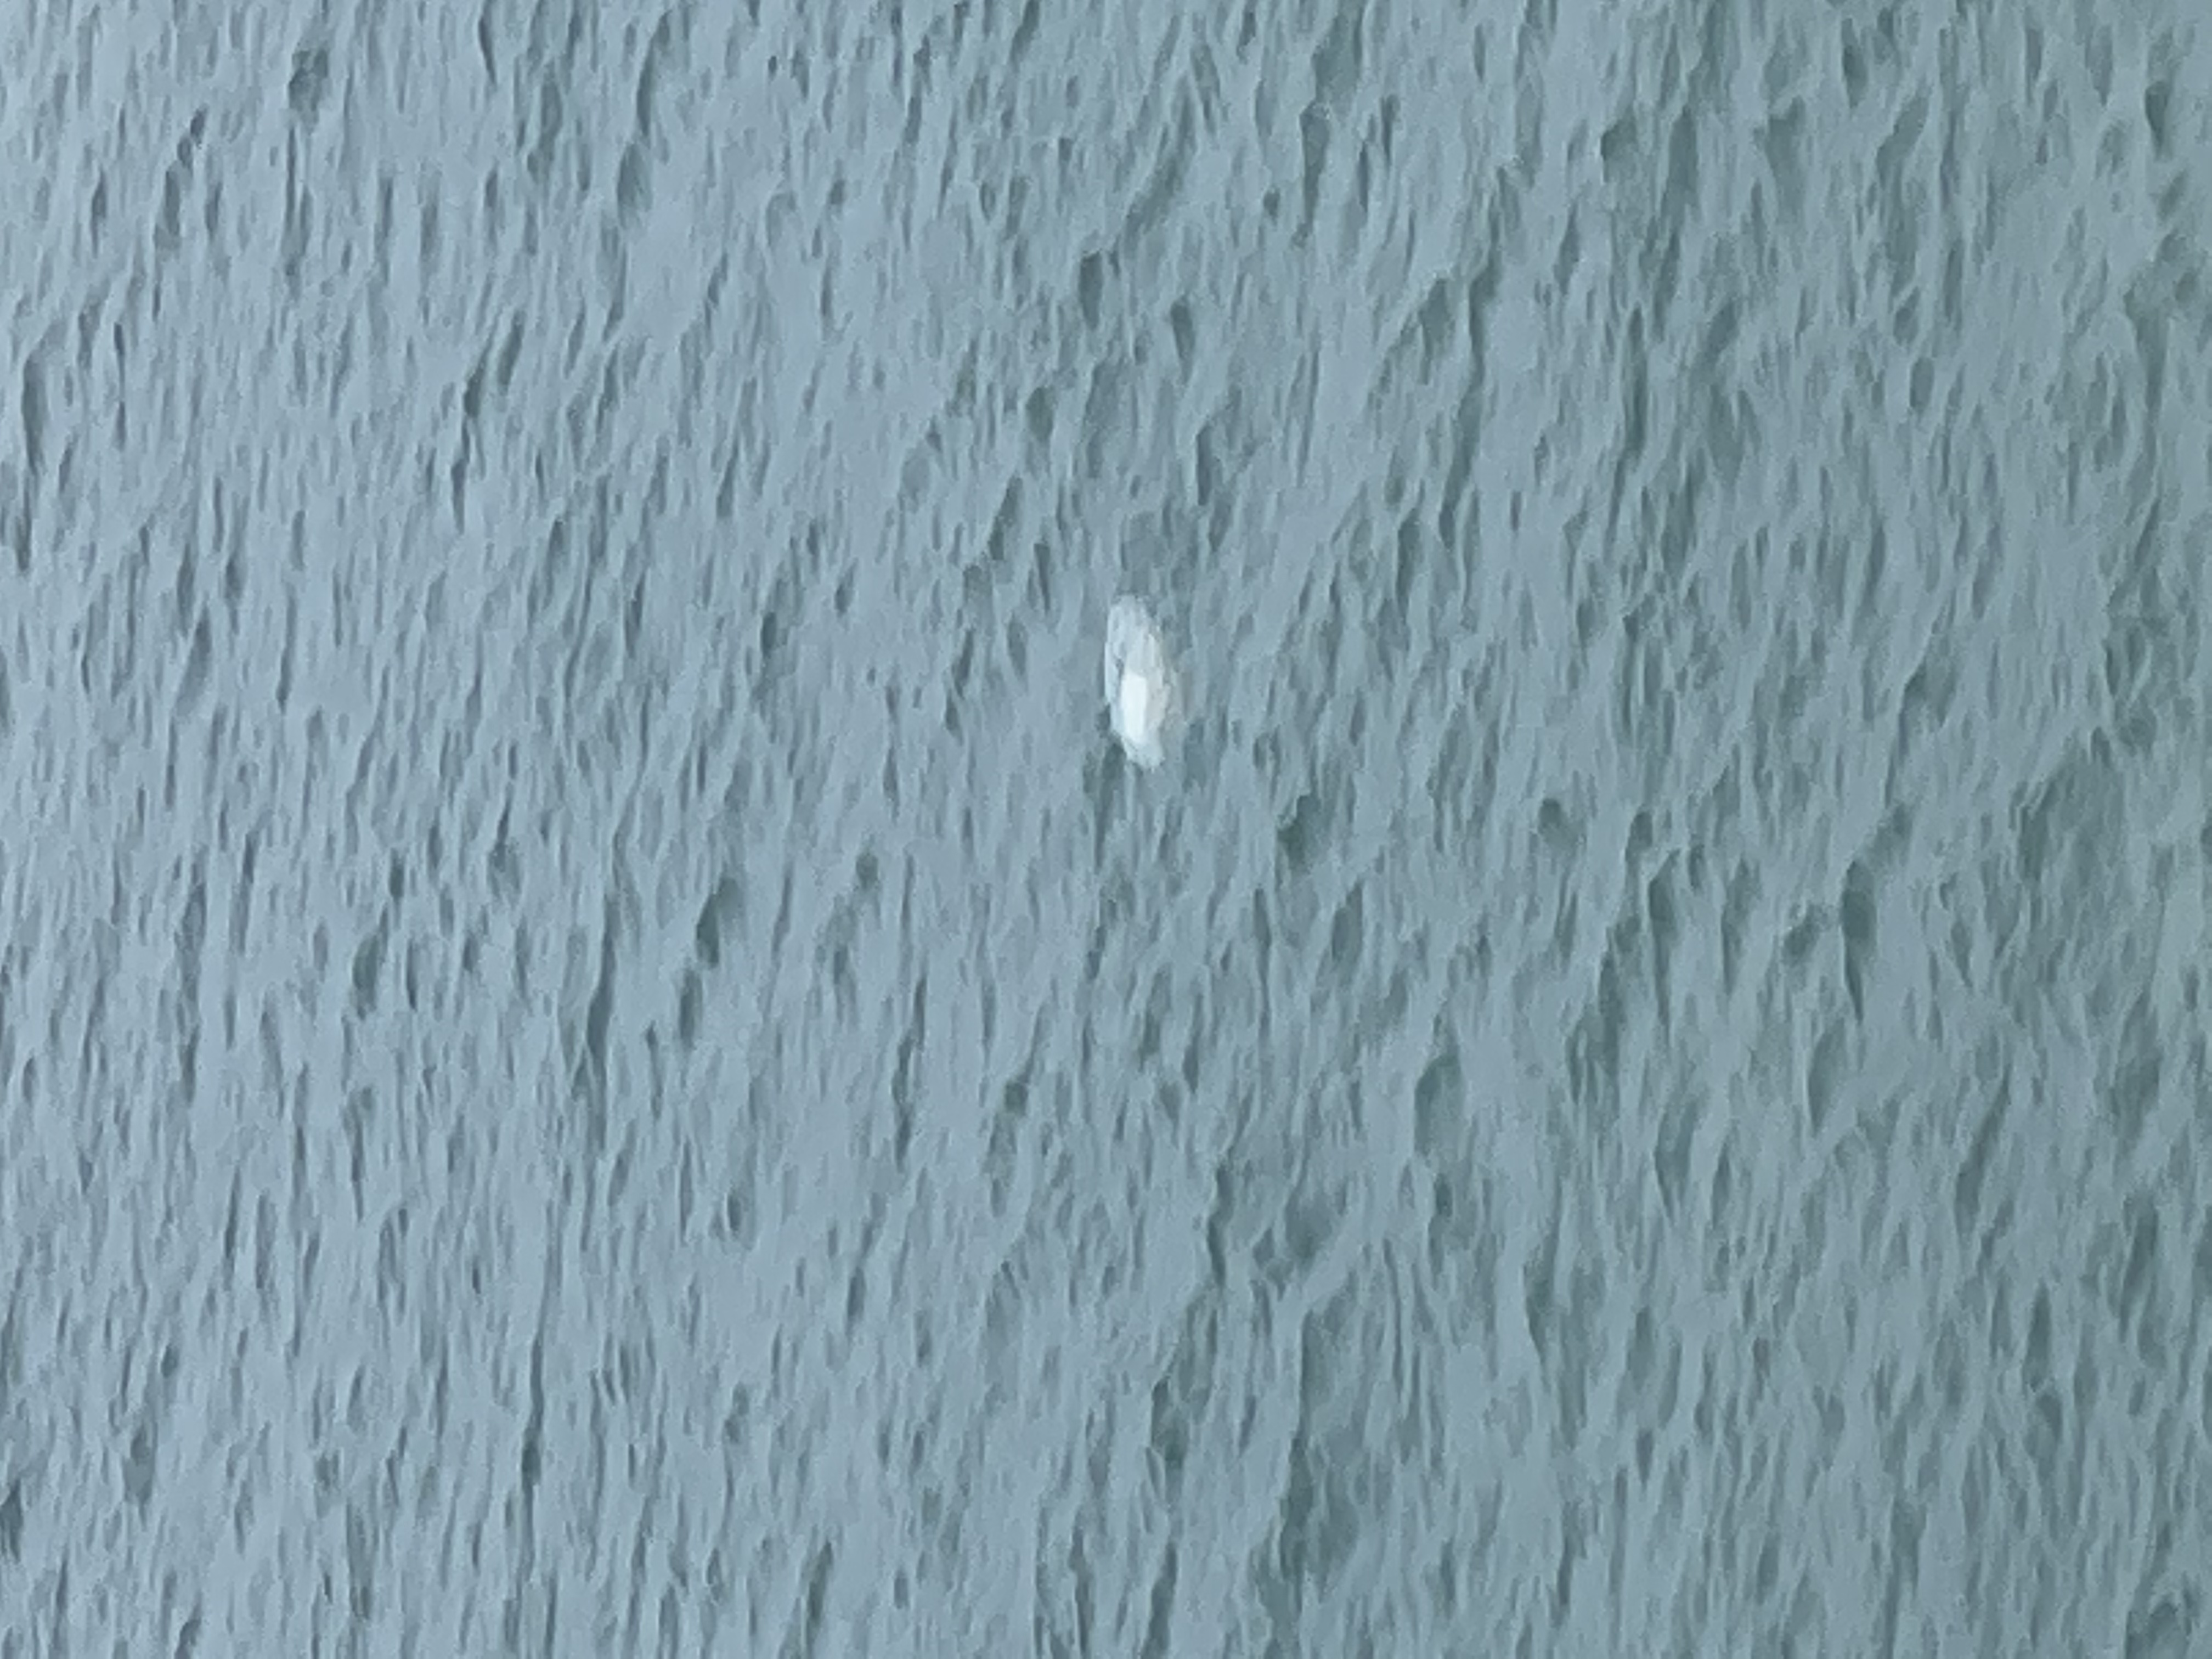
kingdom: Animalia
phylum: Cnidaria
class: Scyphozoa
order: Semaeostomeae
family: Cyaneidae
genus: Cyanea
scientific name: Cyanea nozakii
